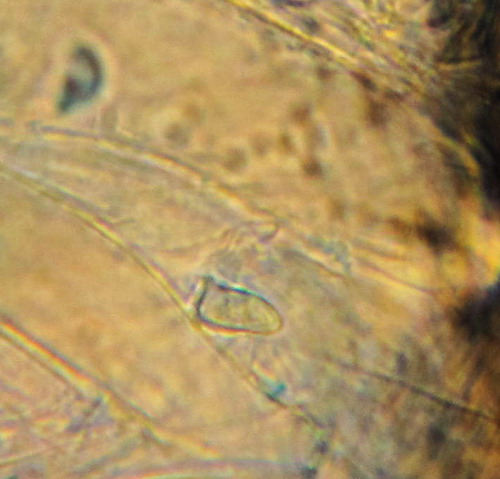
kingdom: Fungi
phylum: Basidiomycota
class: Agaricomycetes
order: Agaricales
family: Agaricaceae
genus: Lepiota
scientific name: Lepiota subalba
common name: hvidlig parasolhat
